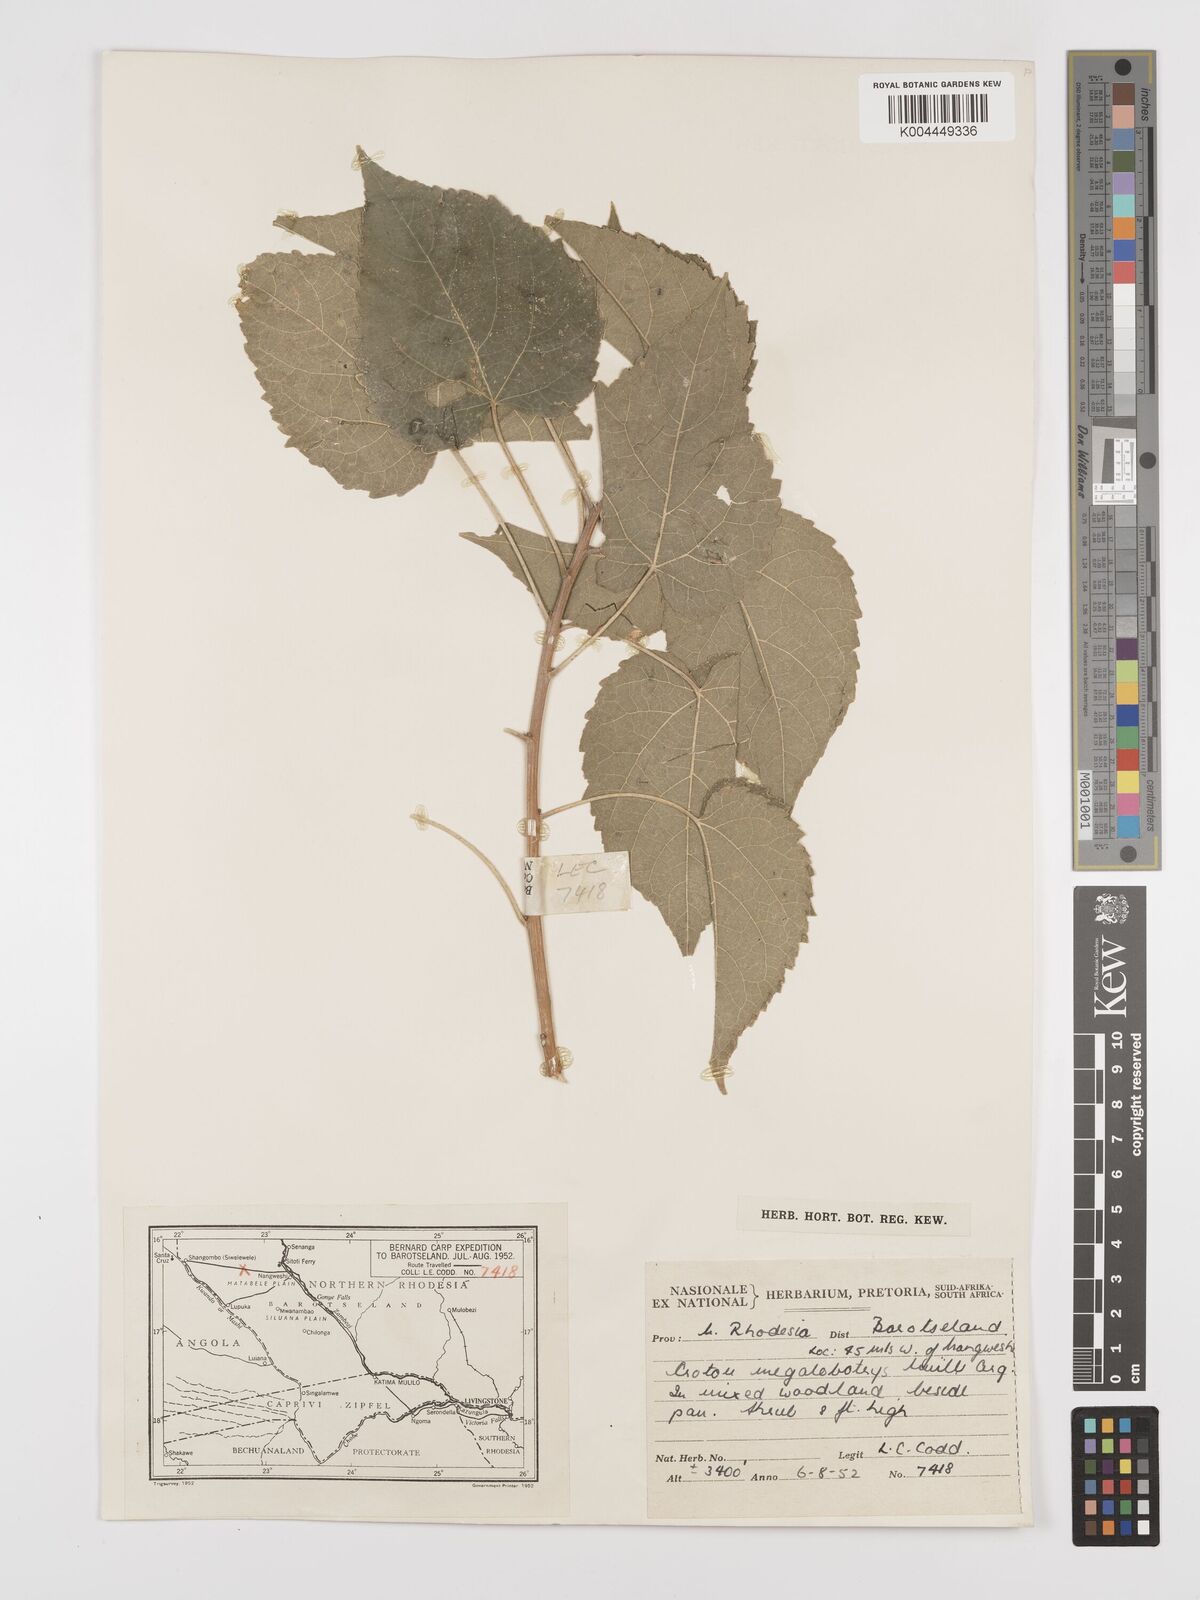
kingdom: Plantae
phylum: Tracheophyta
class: Magnoliopsida
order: Malpighiales
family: Euphorbiaceae
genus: Croton
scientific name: Croton megalobotrys
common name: Large fever berry
